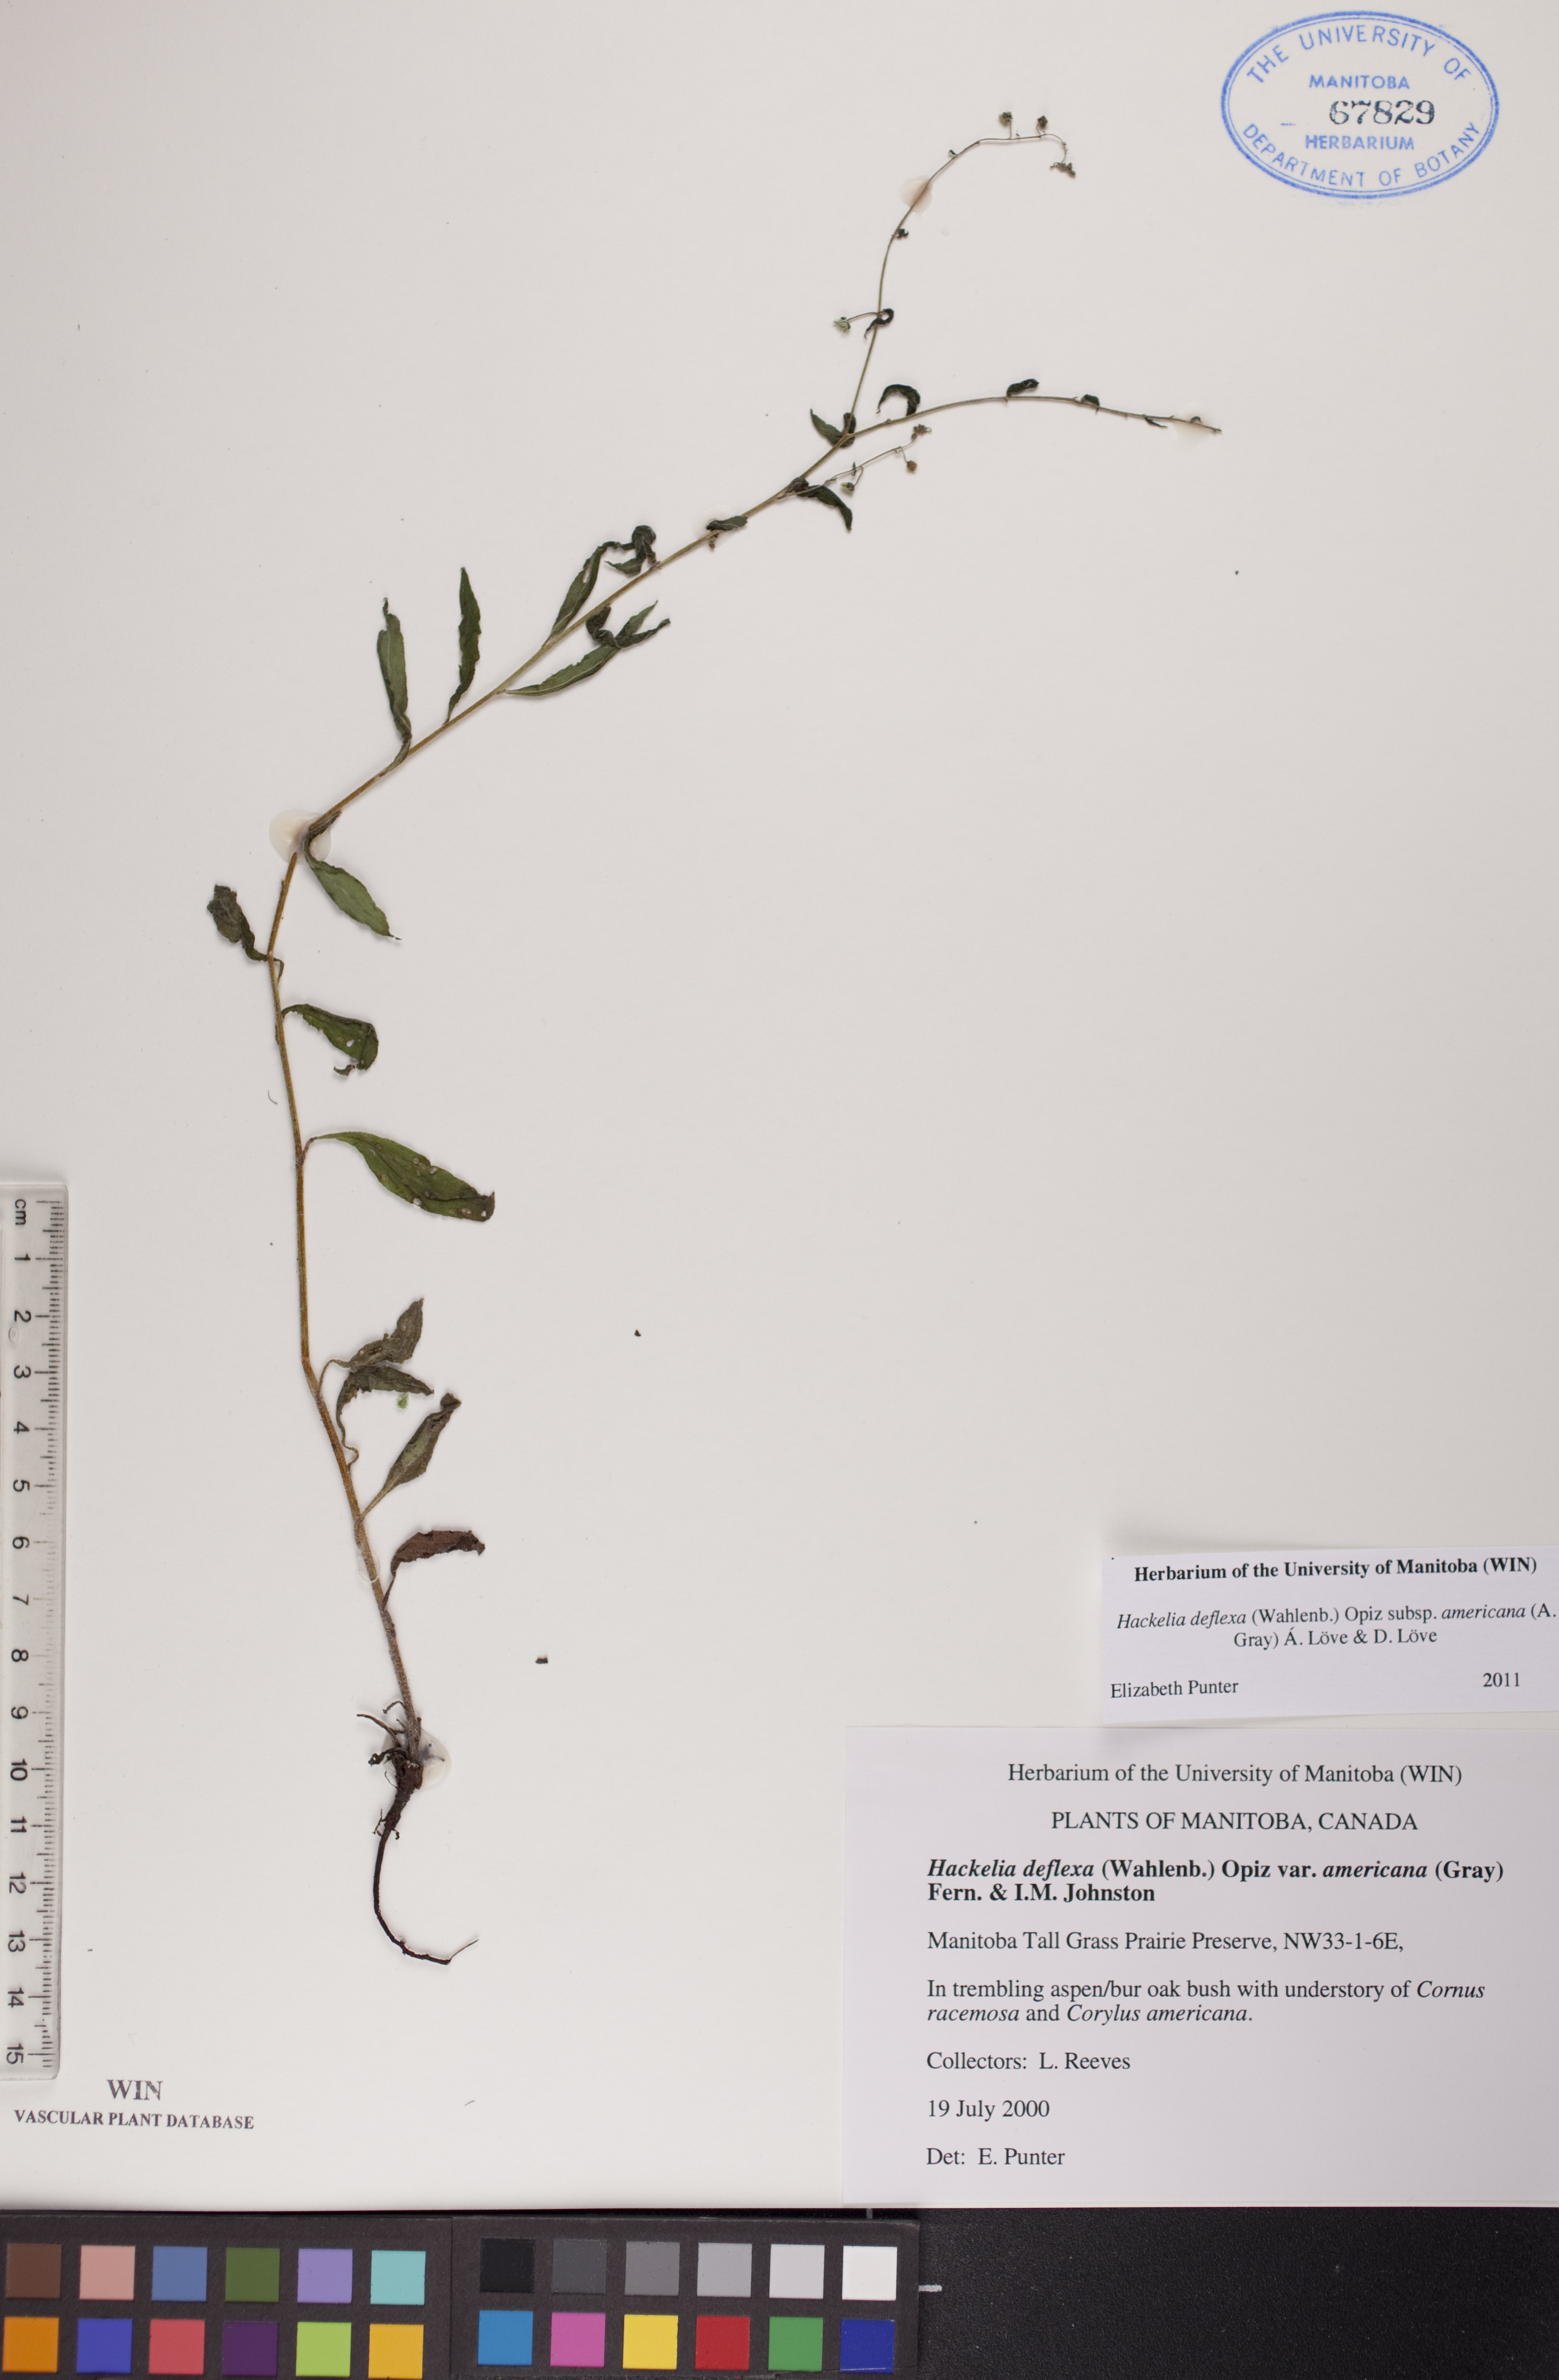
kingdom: Plantae
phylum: Tracheophyta
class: Magnoliopsida
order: Boraginales
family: Boraginaceae
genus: Hackelia
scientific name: Hackelia deflexa
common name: Nodding stickseed
